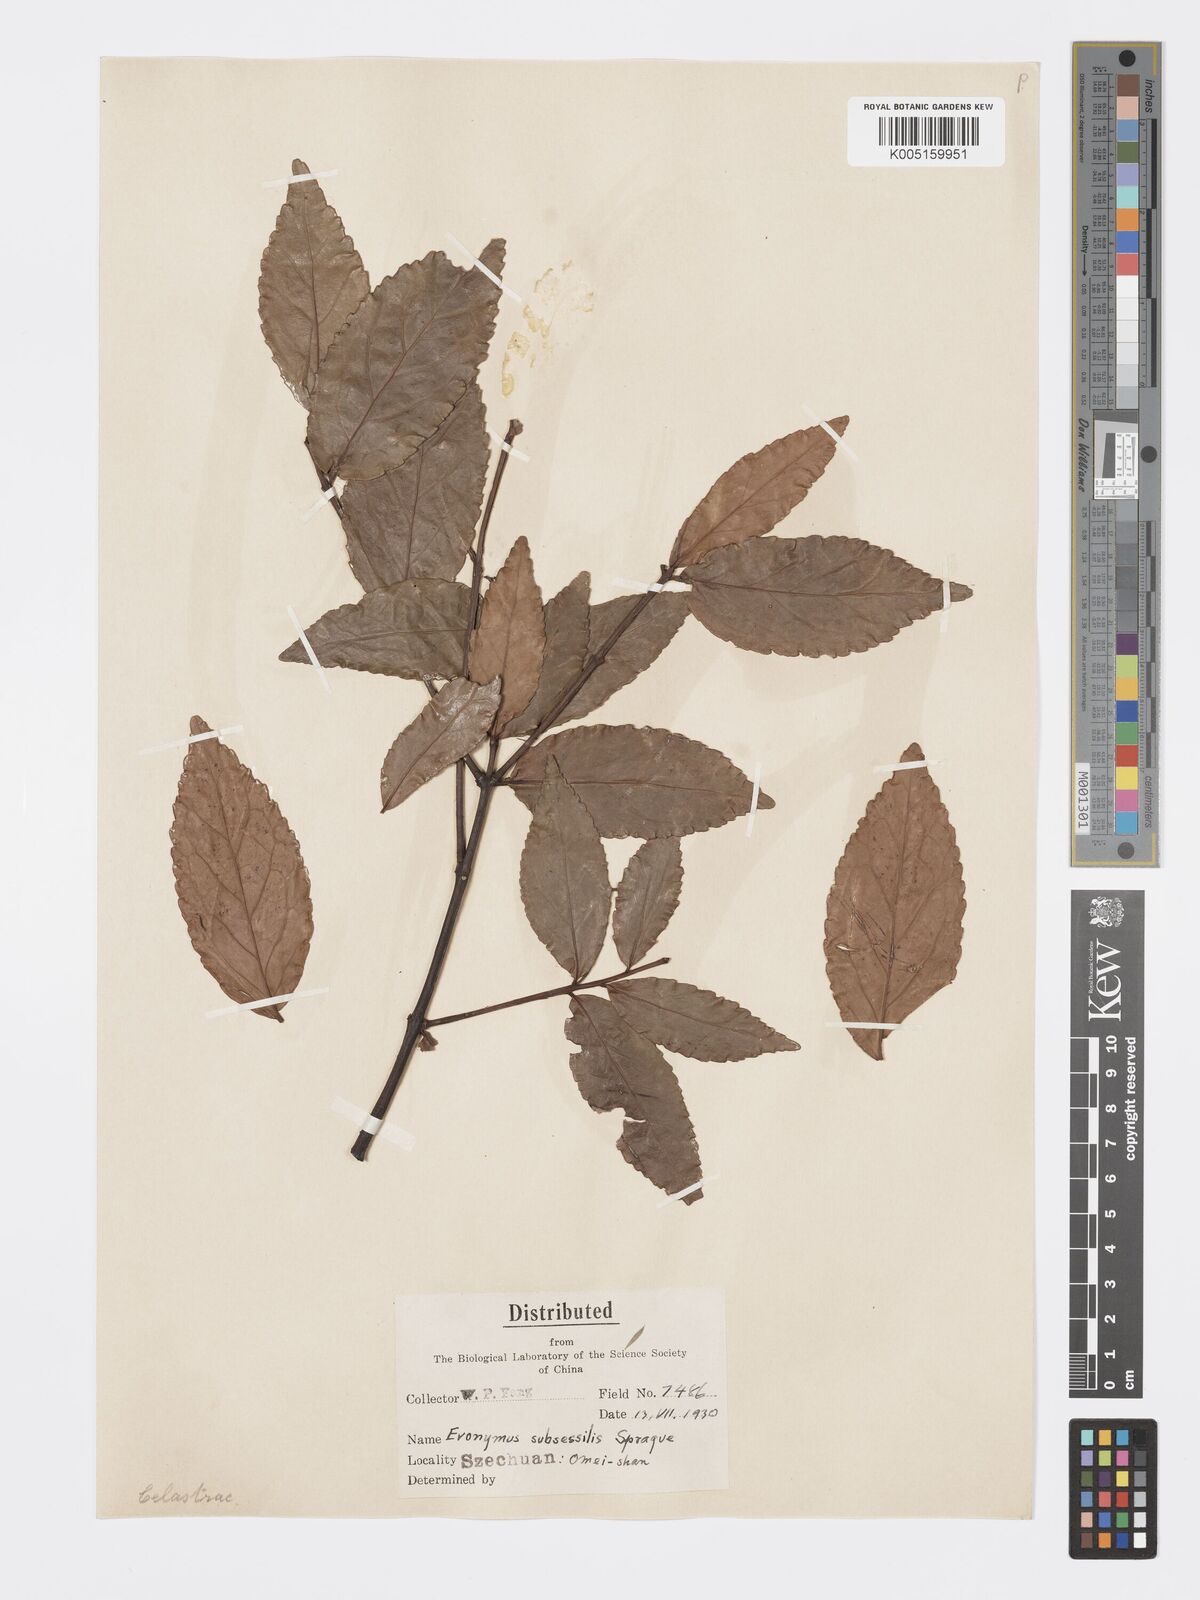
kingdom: Plantae
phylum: Tracheophyta
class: Magnoliopsida
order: Celastrales
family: Celastraceae
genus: Euonymus
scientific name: Euonymus echinatus
